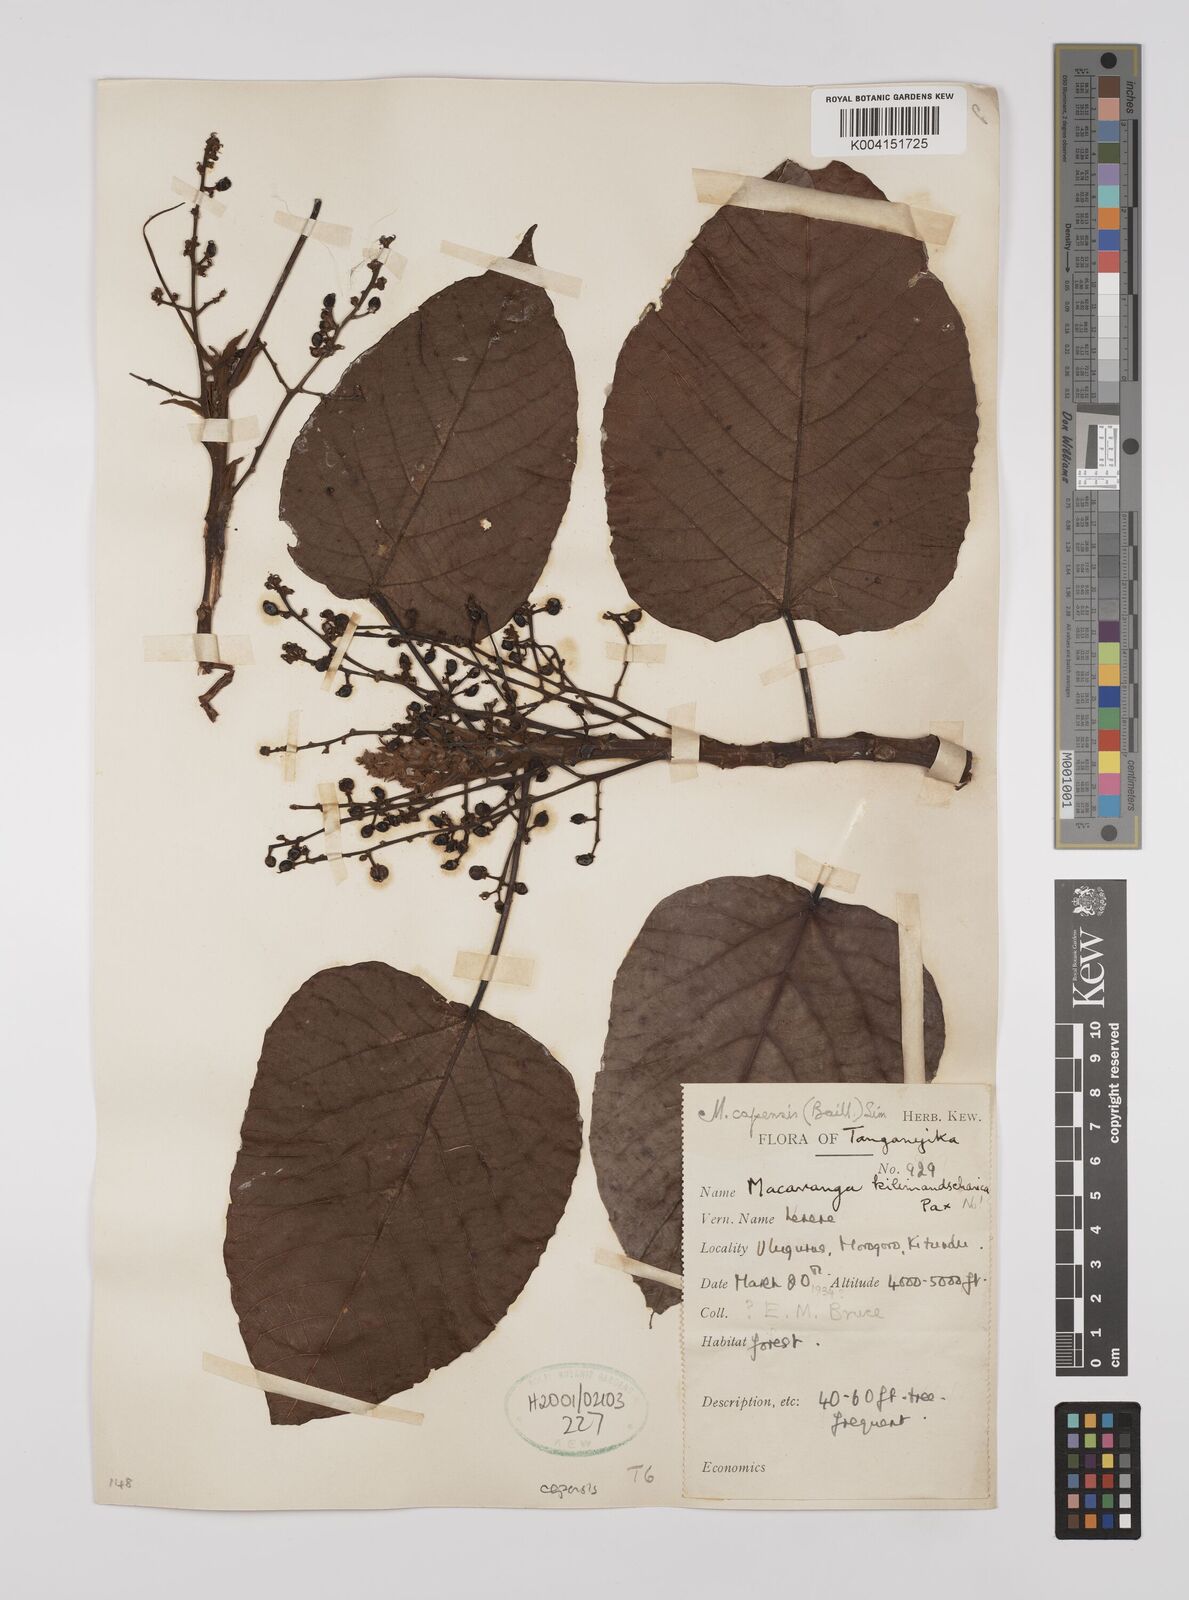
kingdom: Plantae
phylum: Tracheophyta
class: Magnoliopsida
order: Malpighiales
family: Euphorbiaceae
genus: Macaranga
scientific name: Macaranga kilimandscharica
